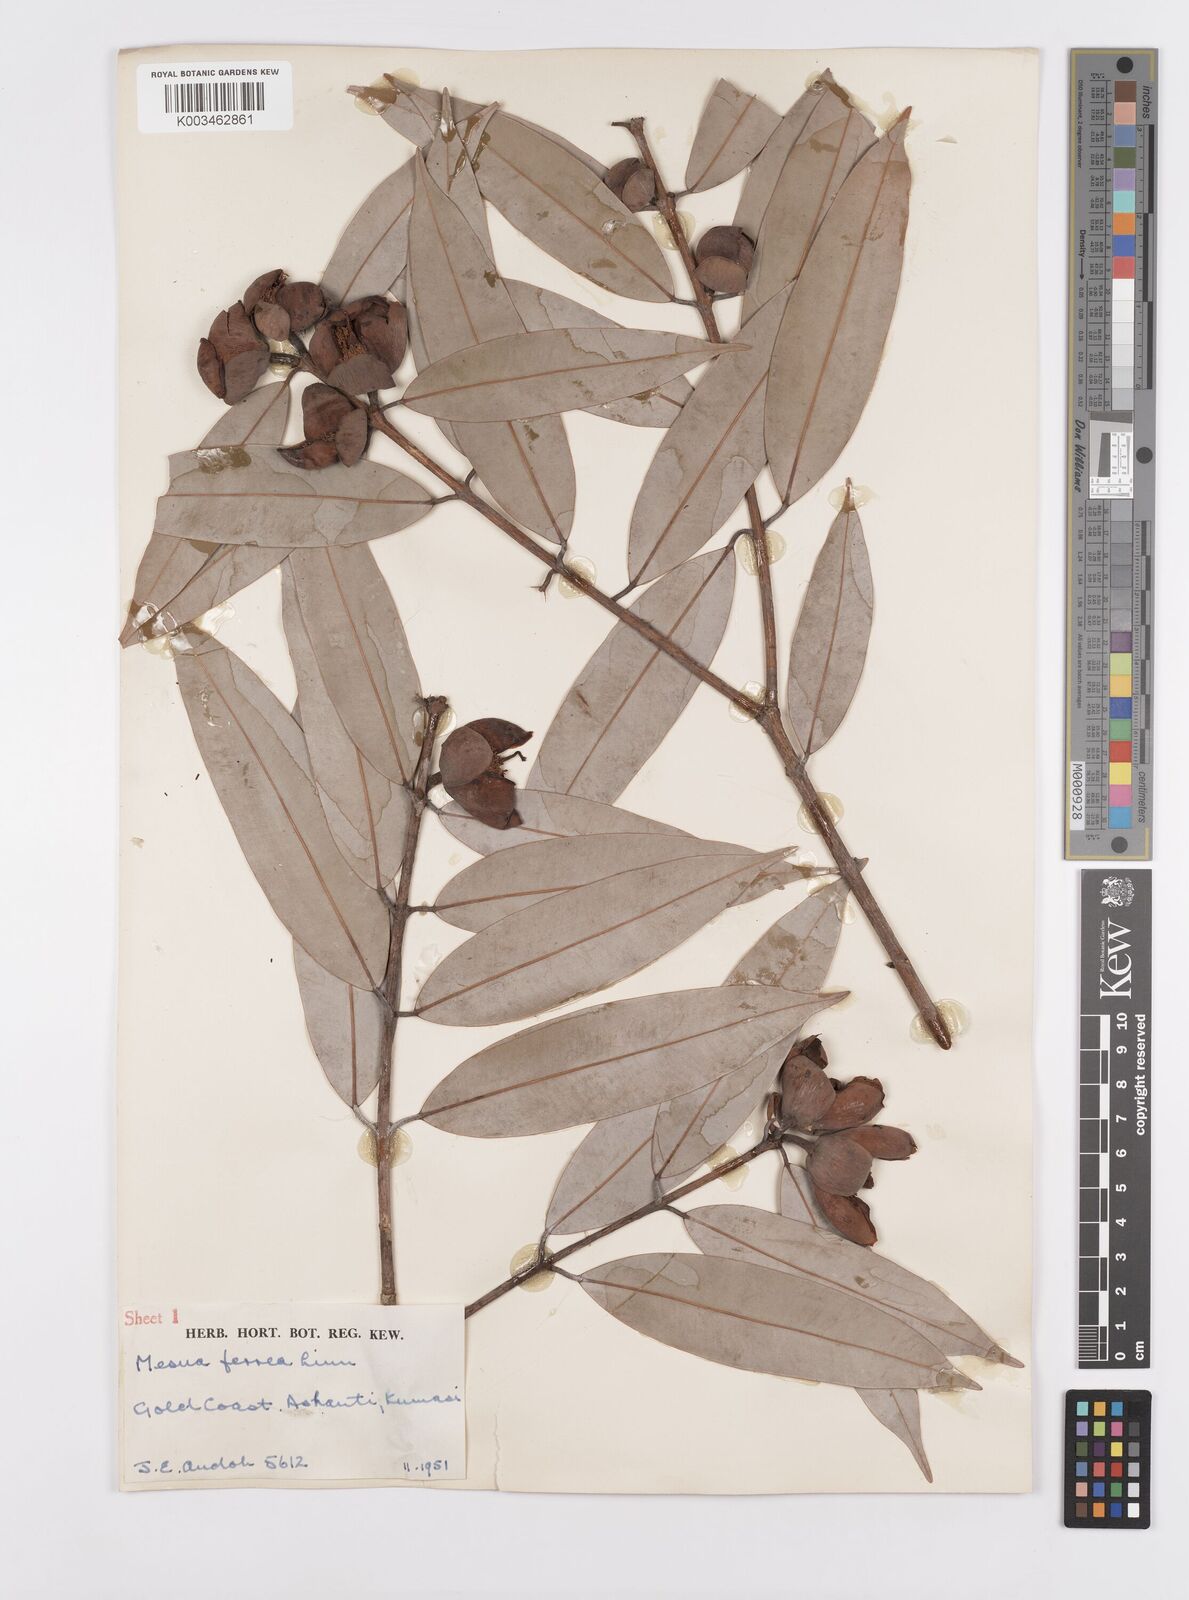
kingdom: Plantae
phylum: Tracheophyta
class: Magnoliopsida
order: Malpighiales
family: Calophyllaceae
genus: Mesua
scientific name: Mesua ferrea
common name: Mesua
